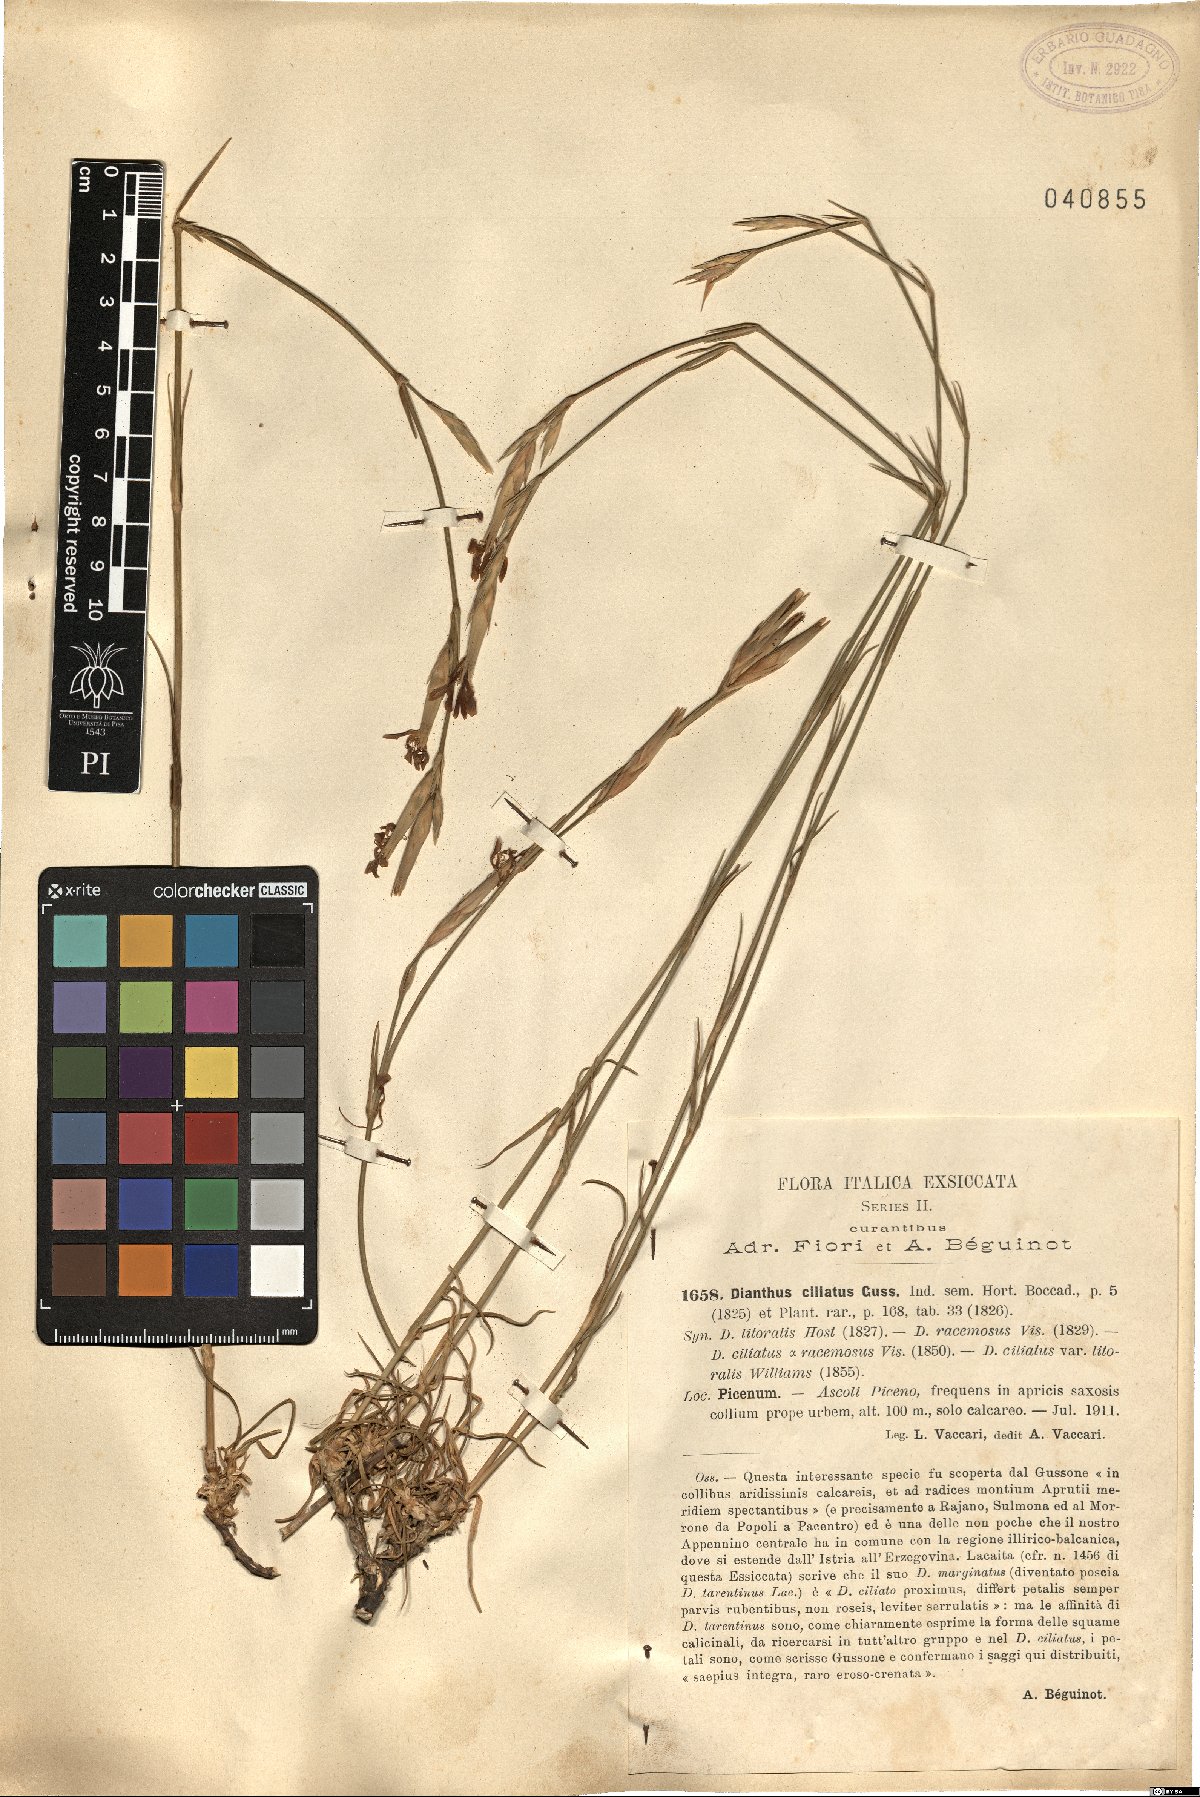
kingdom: Plantae
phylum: Tracheophyta
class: Magnoliopsida
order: Caryophyllales
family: Caryophyllaceae
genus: Dianthus
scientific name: Dianthus ciliatus
